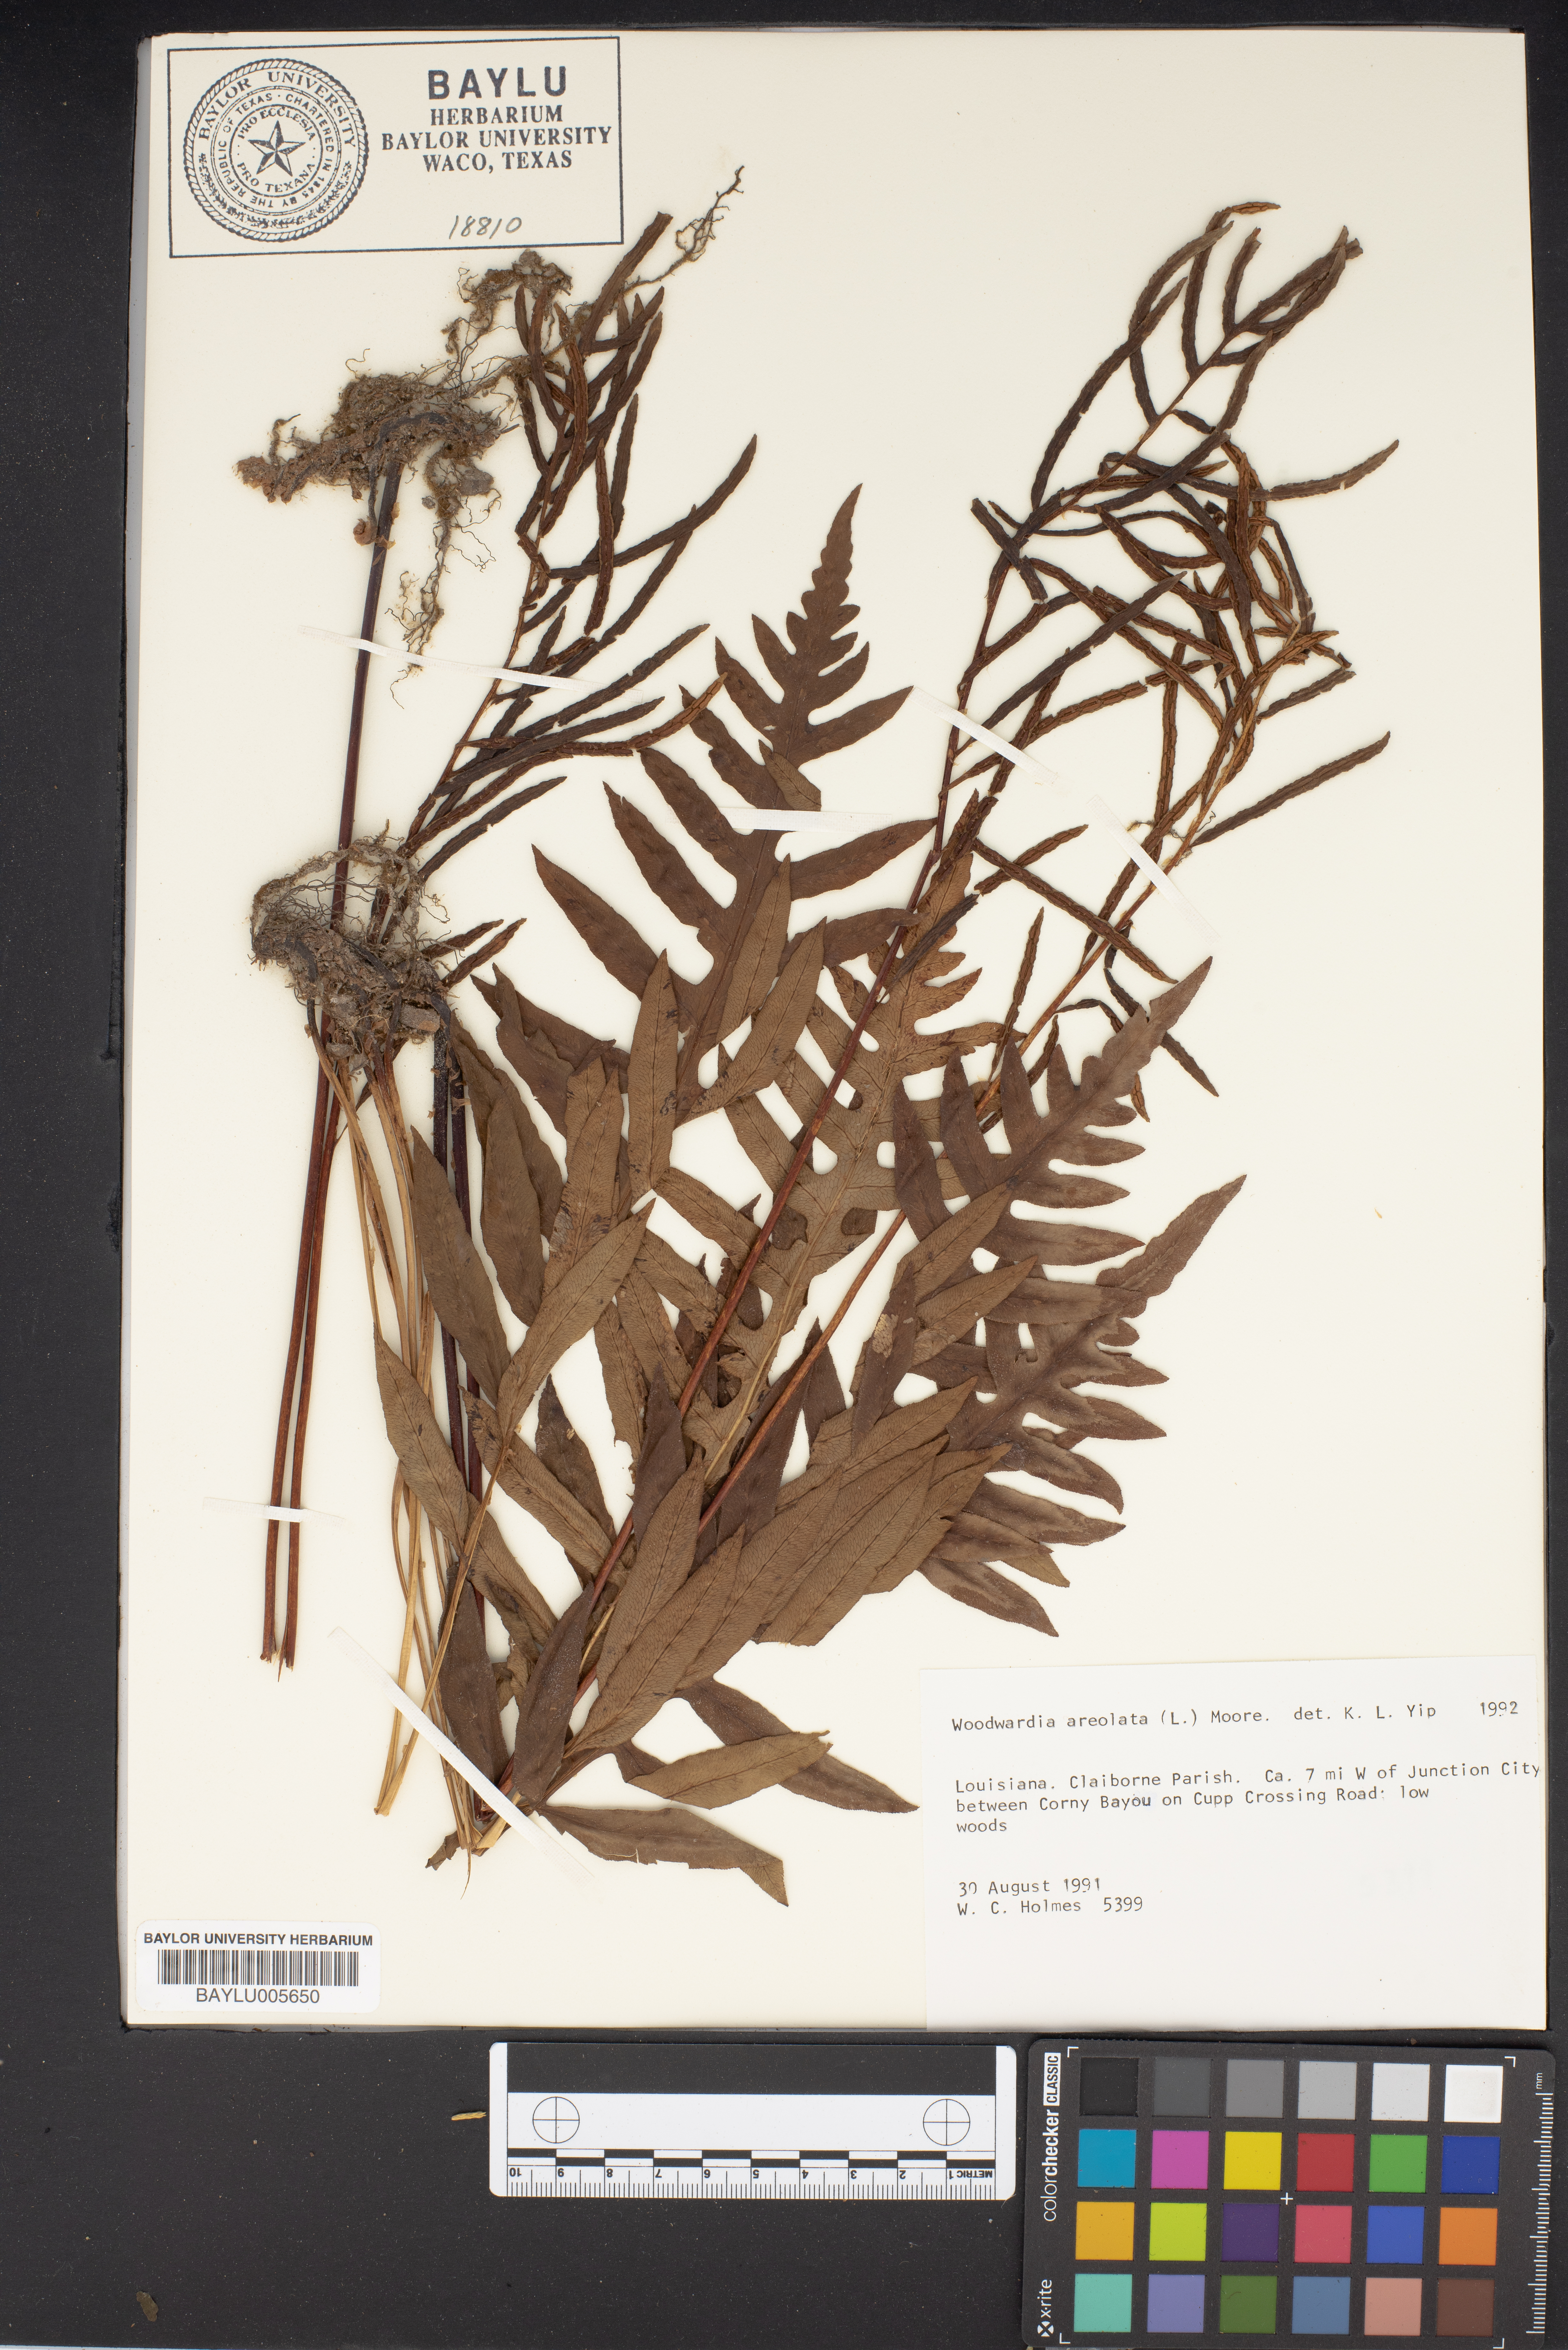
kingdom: Plantae
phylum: Tracheophyta
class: Polypodiopsida
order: Polypodiales
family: Blechnaceae
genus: Lorinseria
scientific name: Lorinseria areolata
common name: Dwarf chain fern
